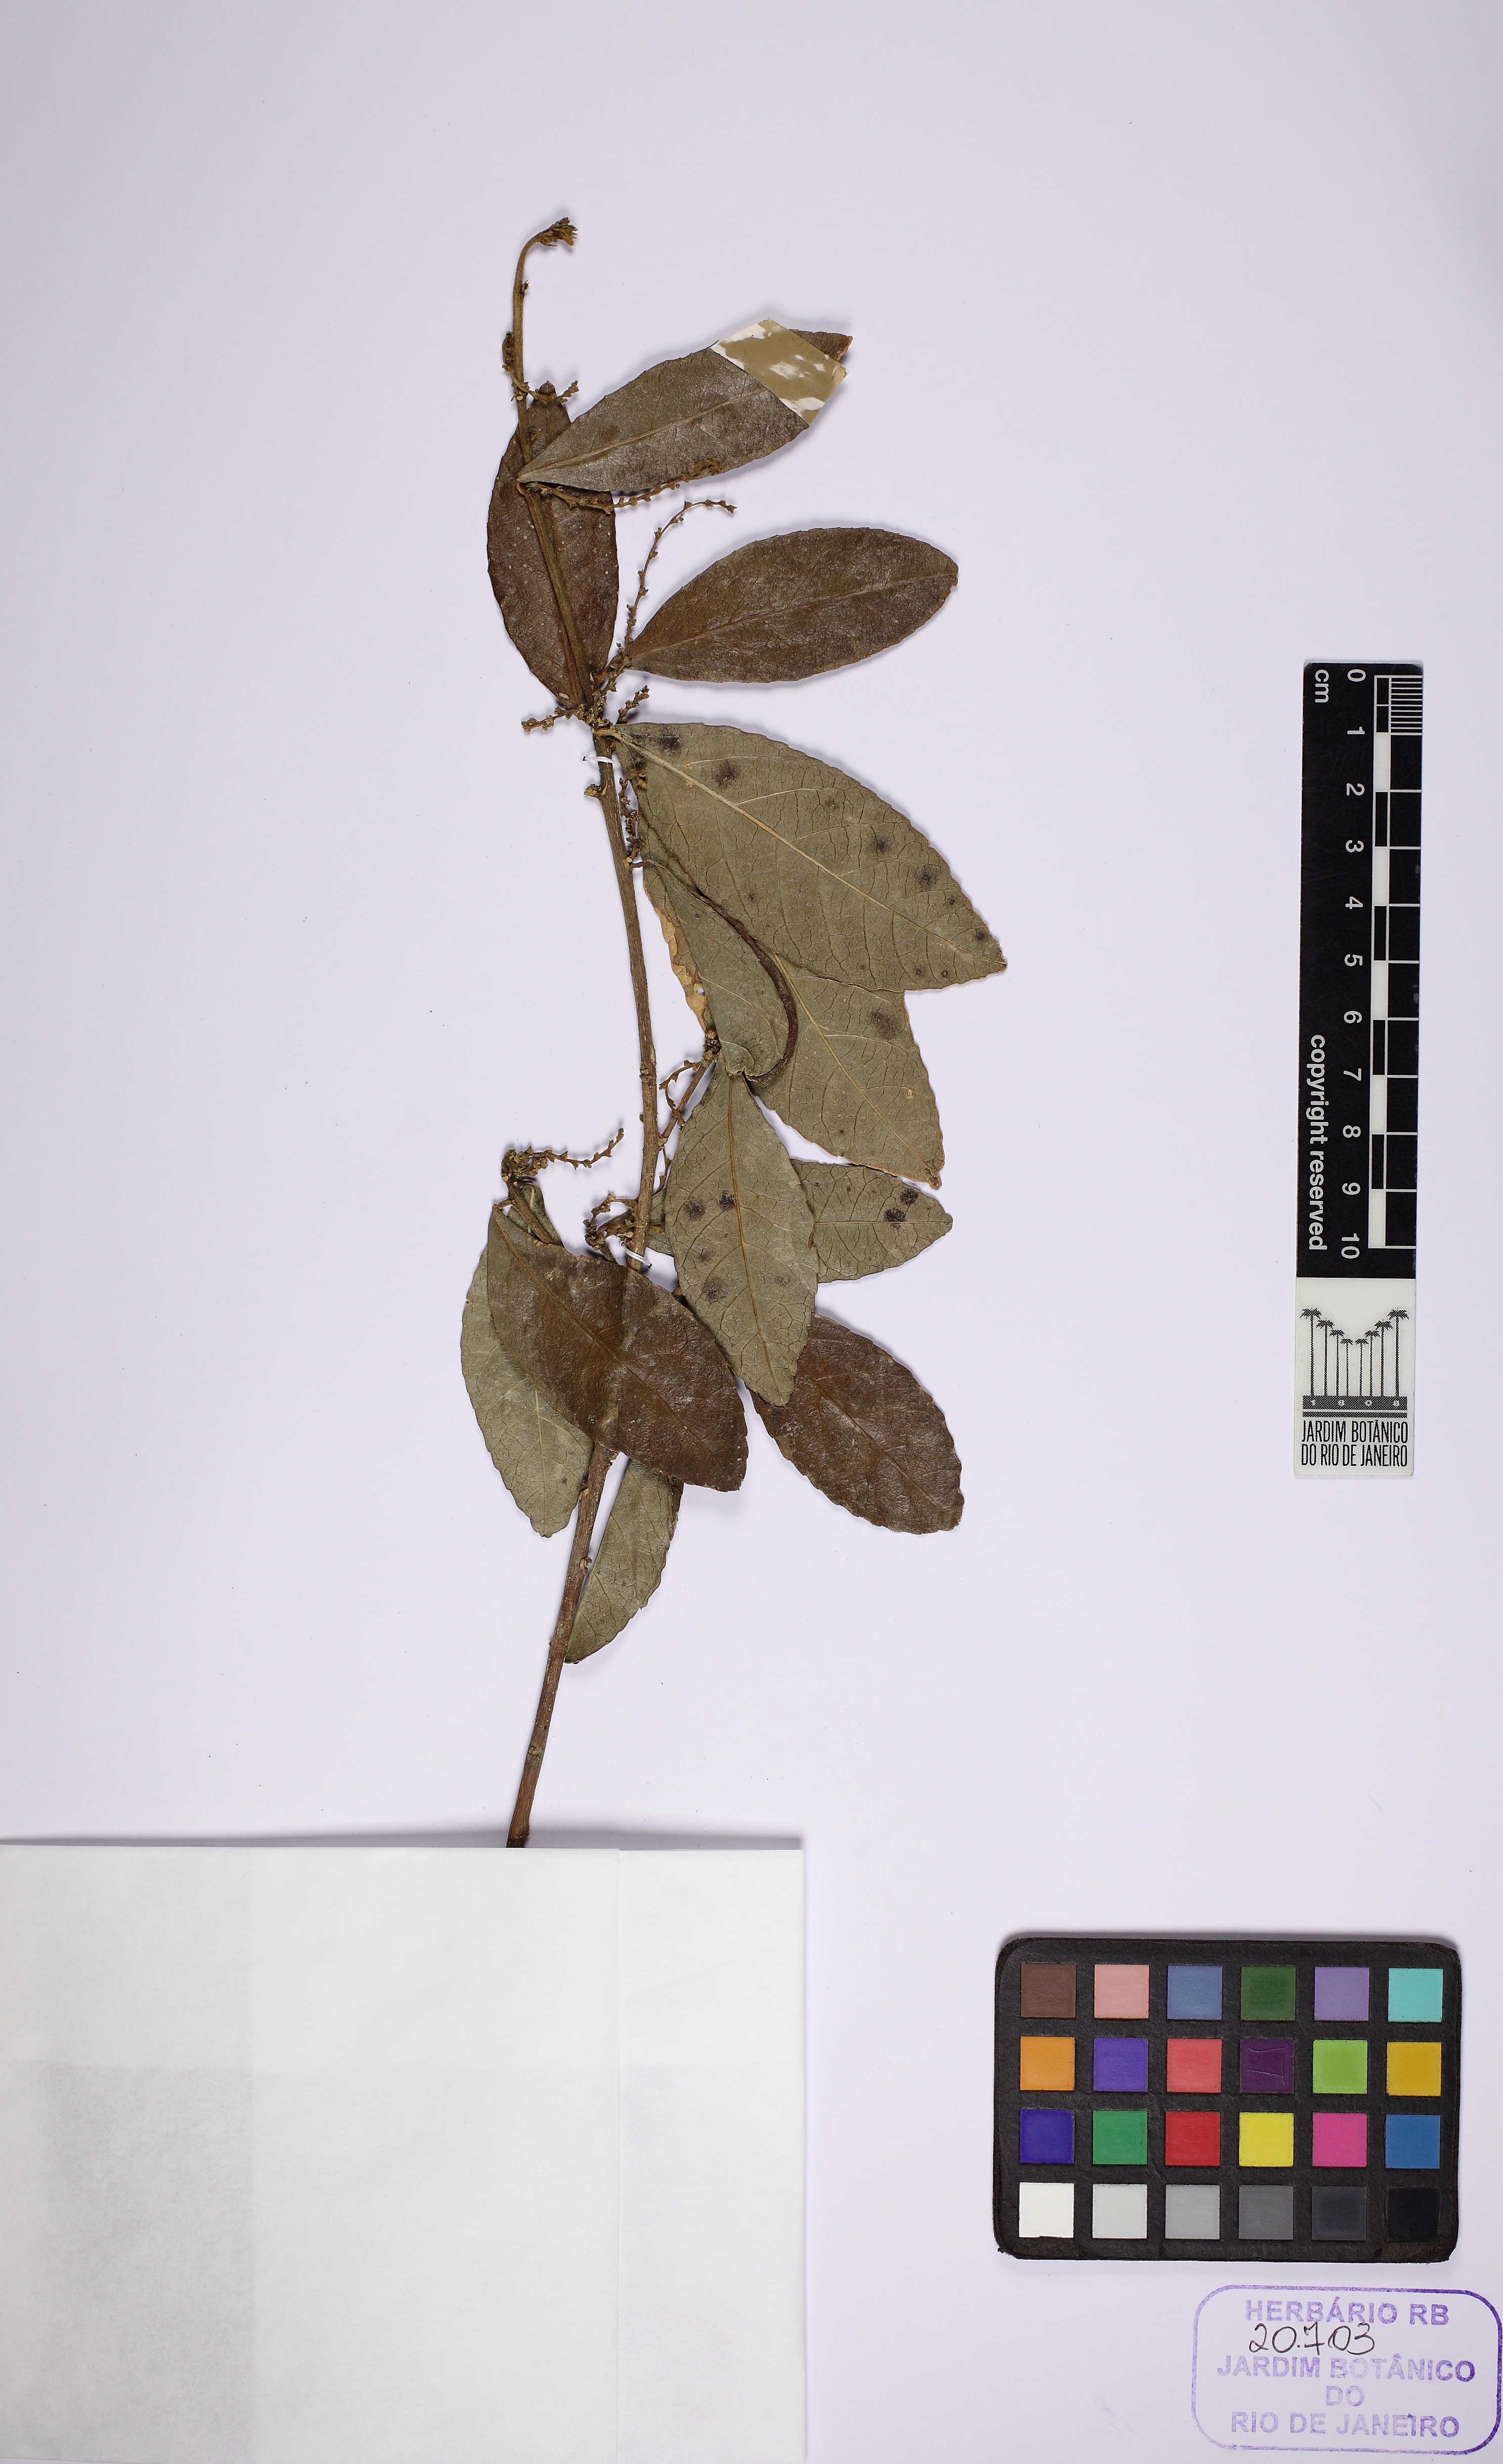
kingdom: Plantae
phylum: Tracheophyta
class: Magnoliopsida
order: Malpighiales
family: Euphorbiaceae
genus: Bernardia
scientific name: Bernardia tamanduana
